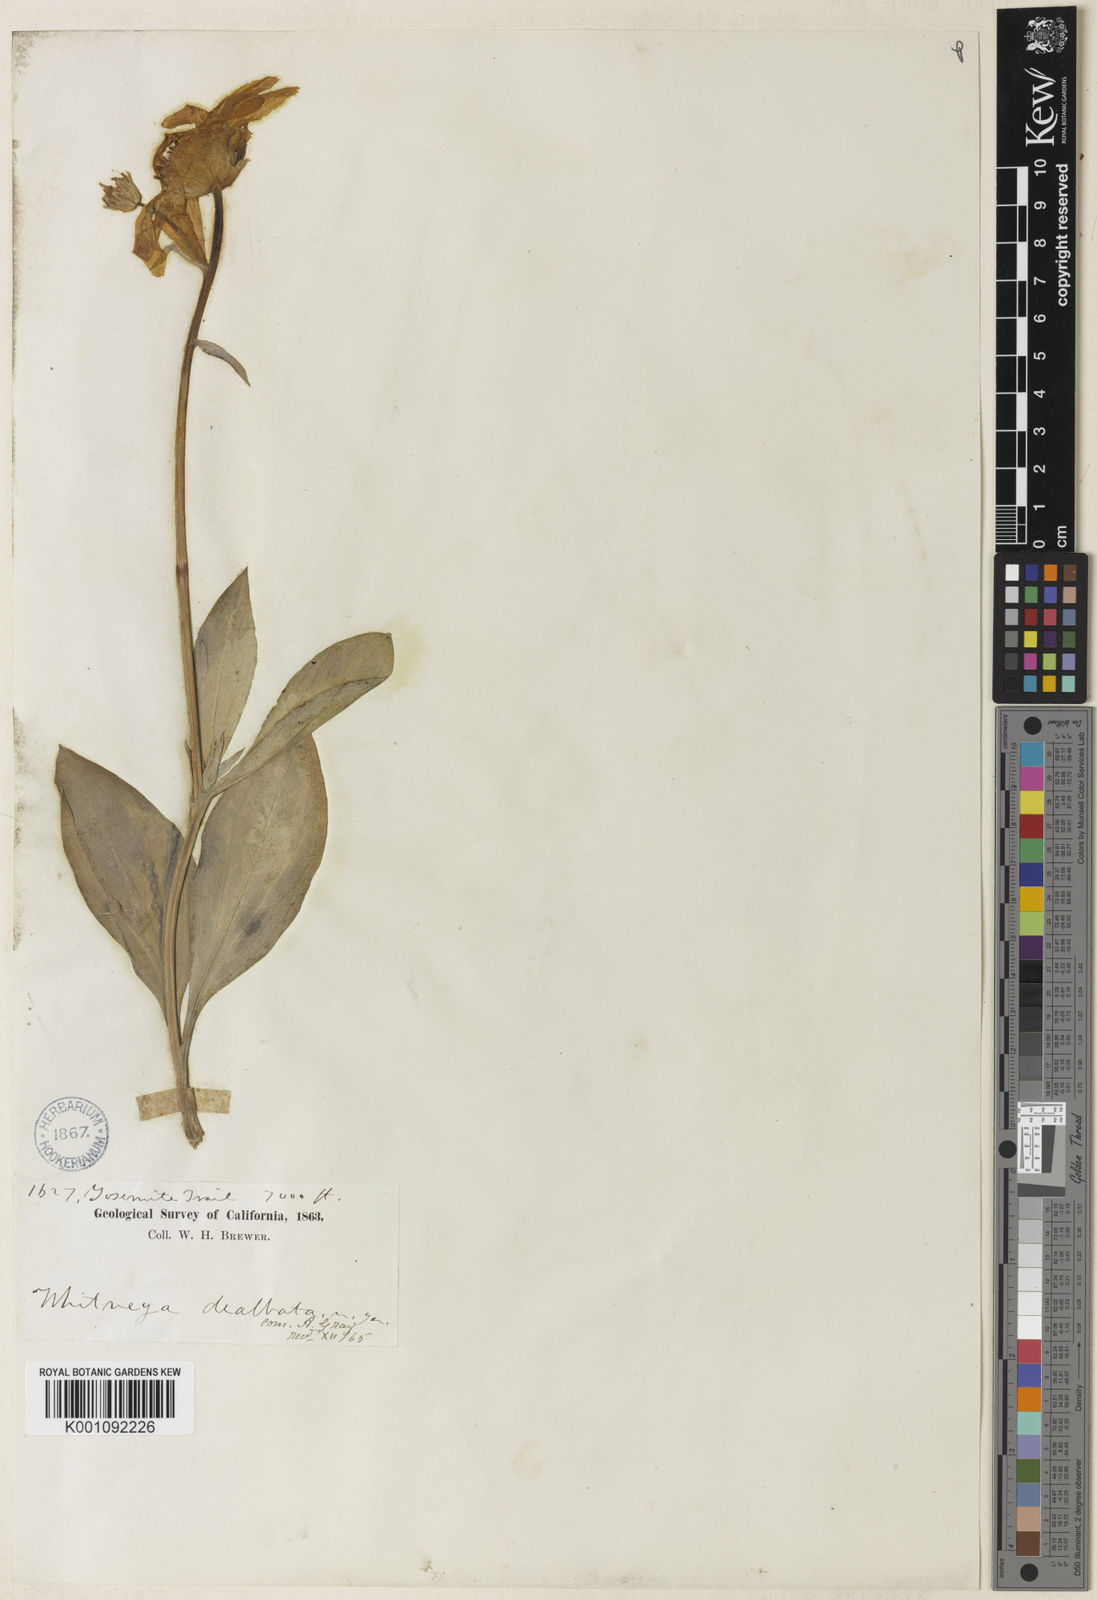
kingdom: Plantae
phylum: Tracheophyta
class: Magnoliopsida
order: Asterales
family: Asteraceae
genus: Arnica
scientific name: Arnica dealbata
